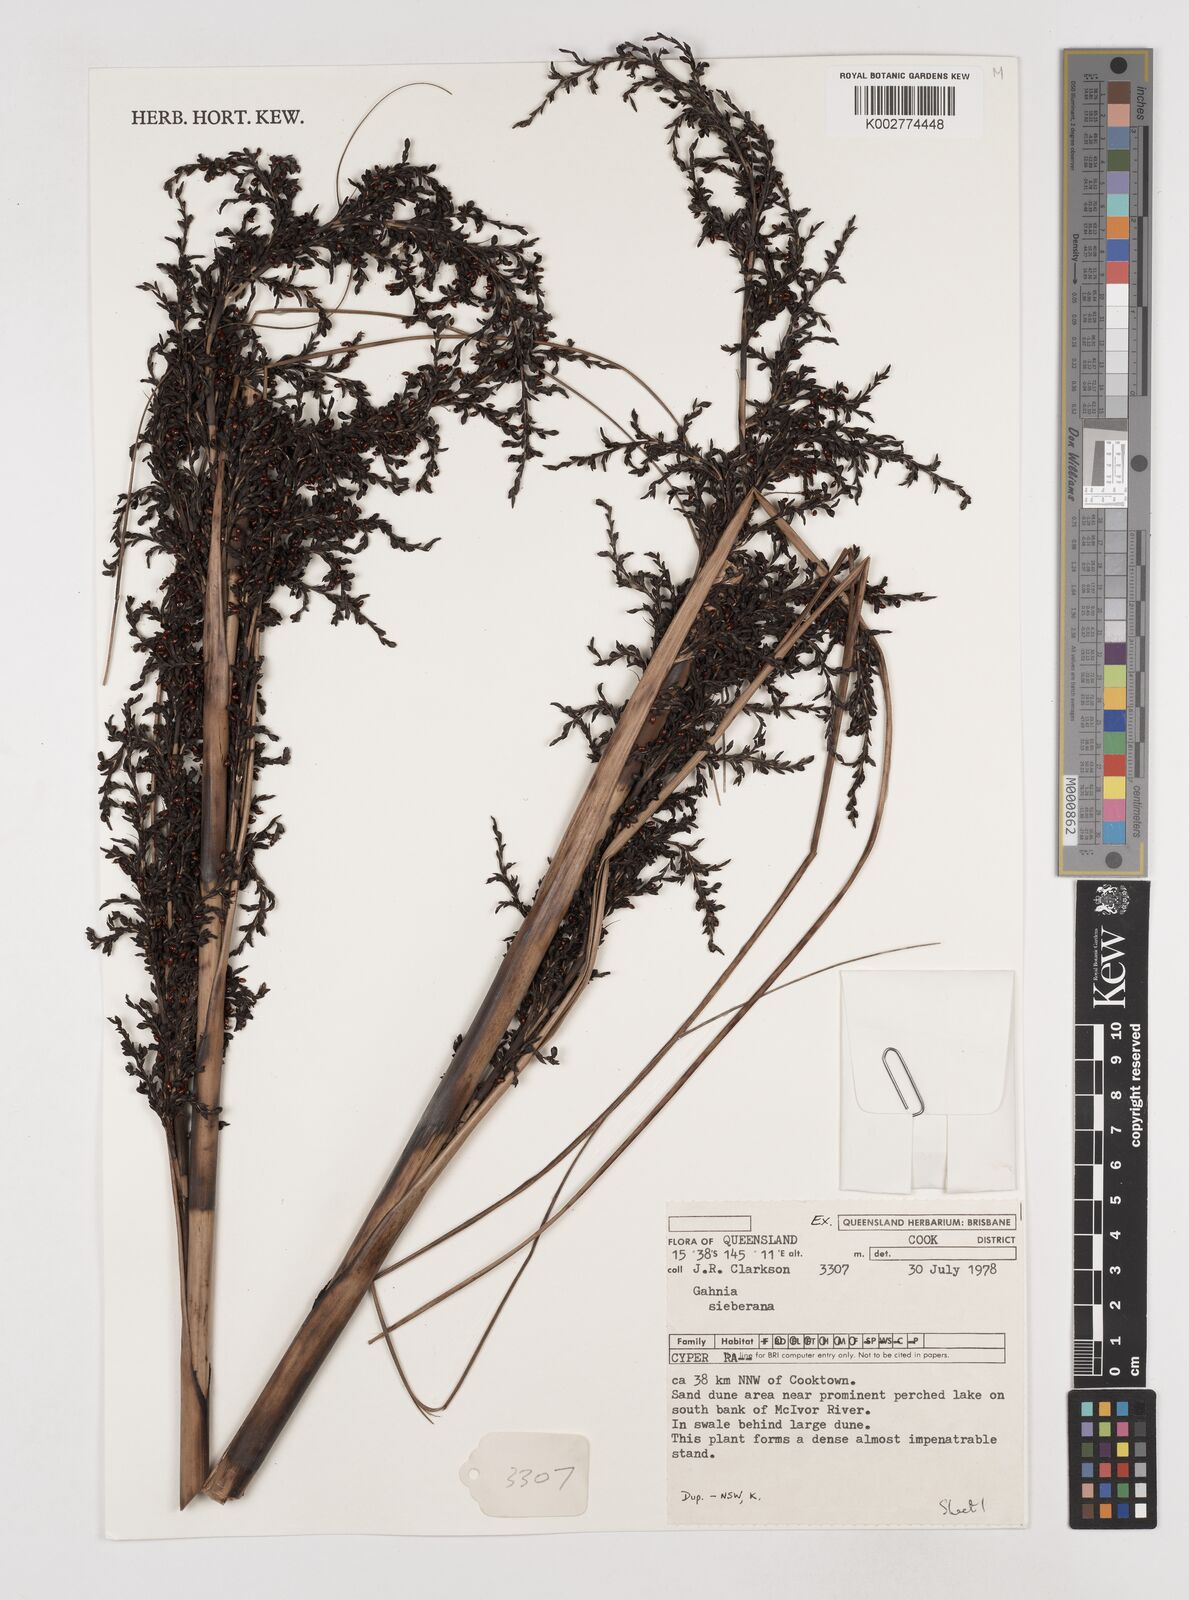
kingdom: Plantae
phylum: Tracheophyta
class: Liliopsida
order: Poales
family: Cyperaceae
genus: Gahnia
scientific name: Gahnia sieberiana
